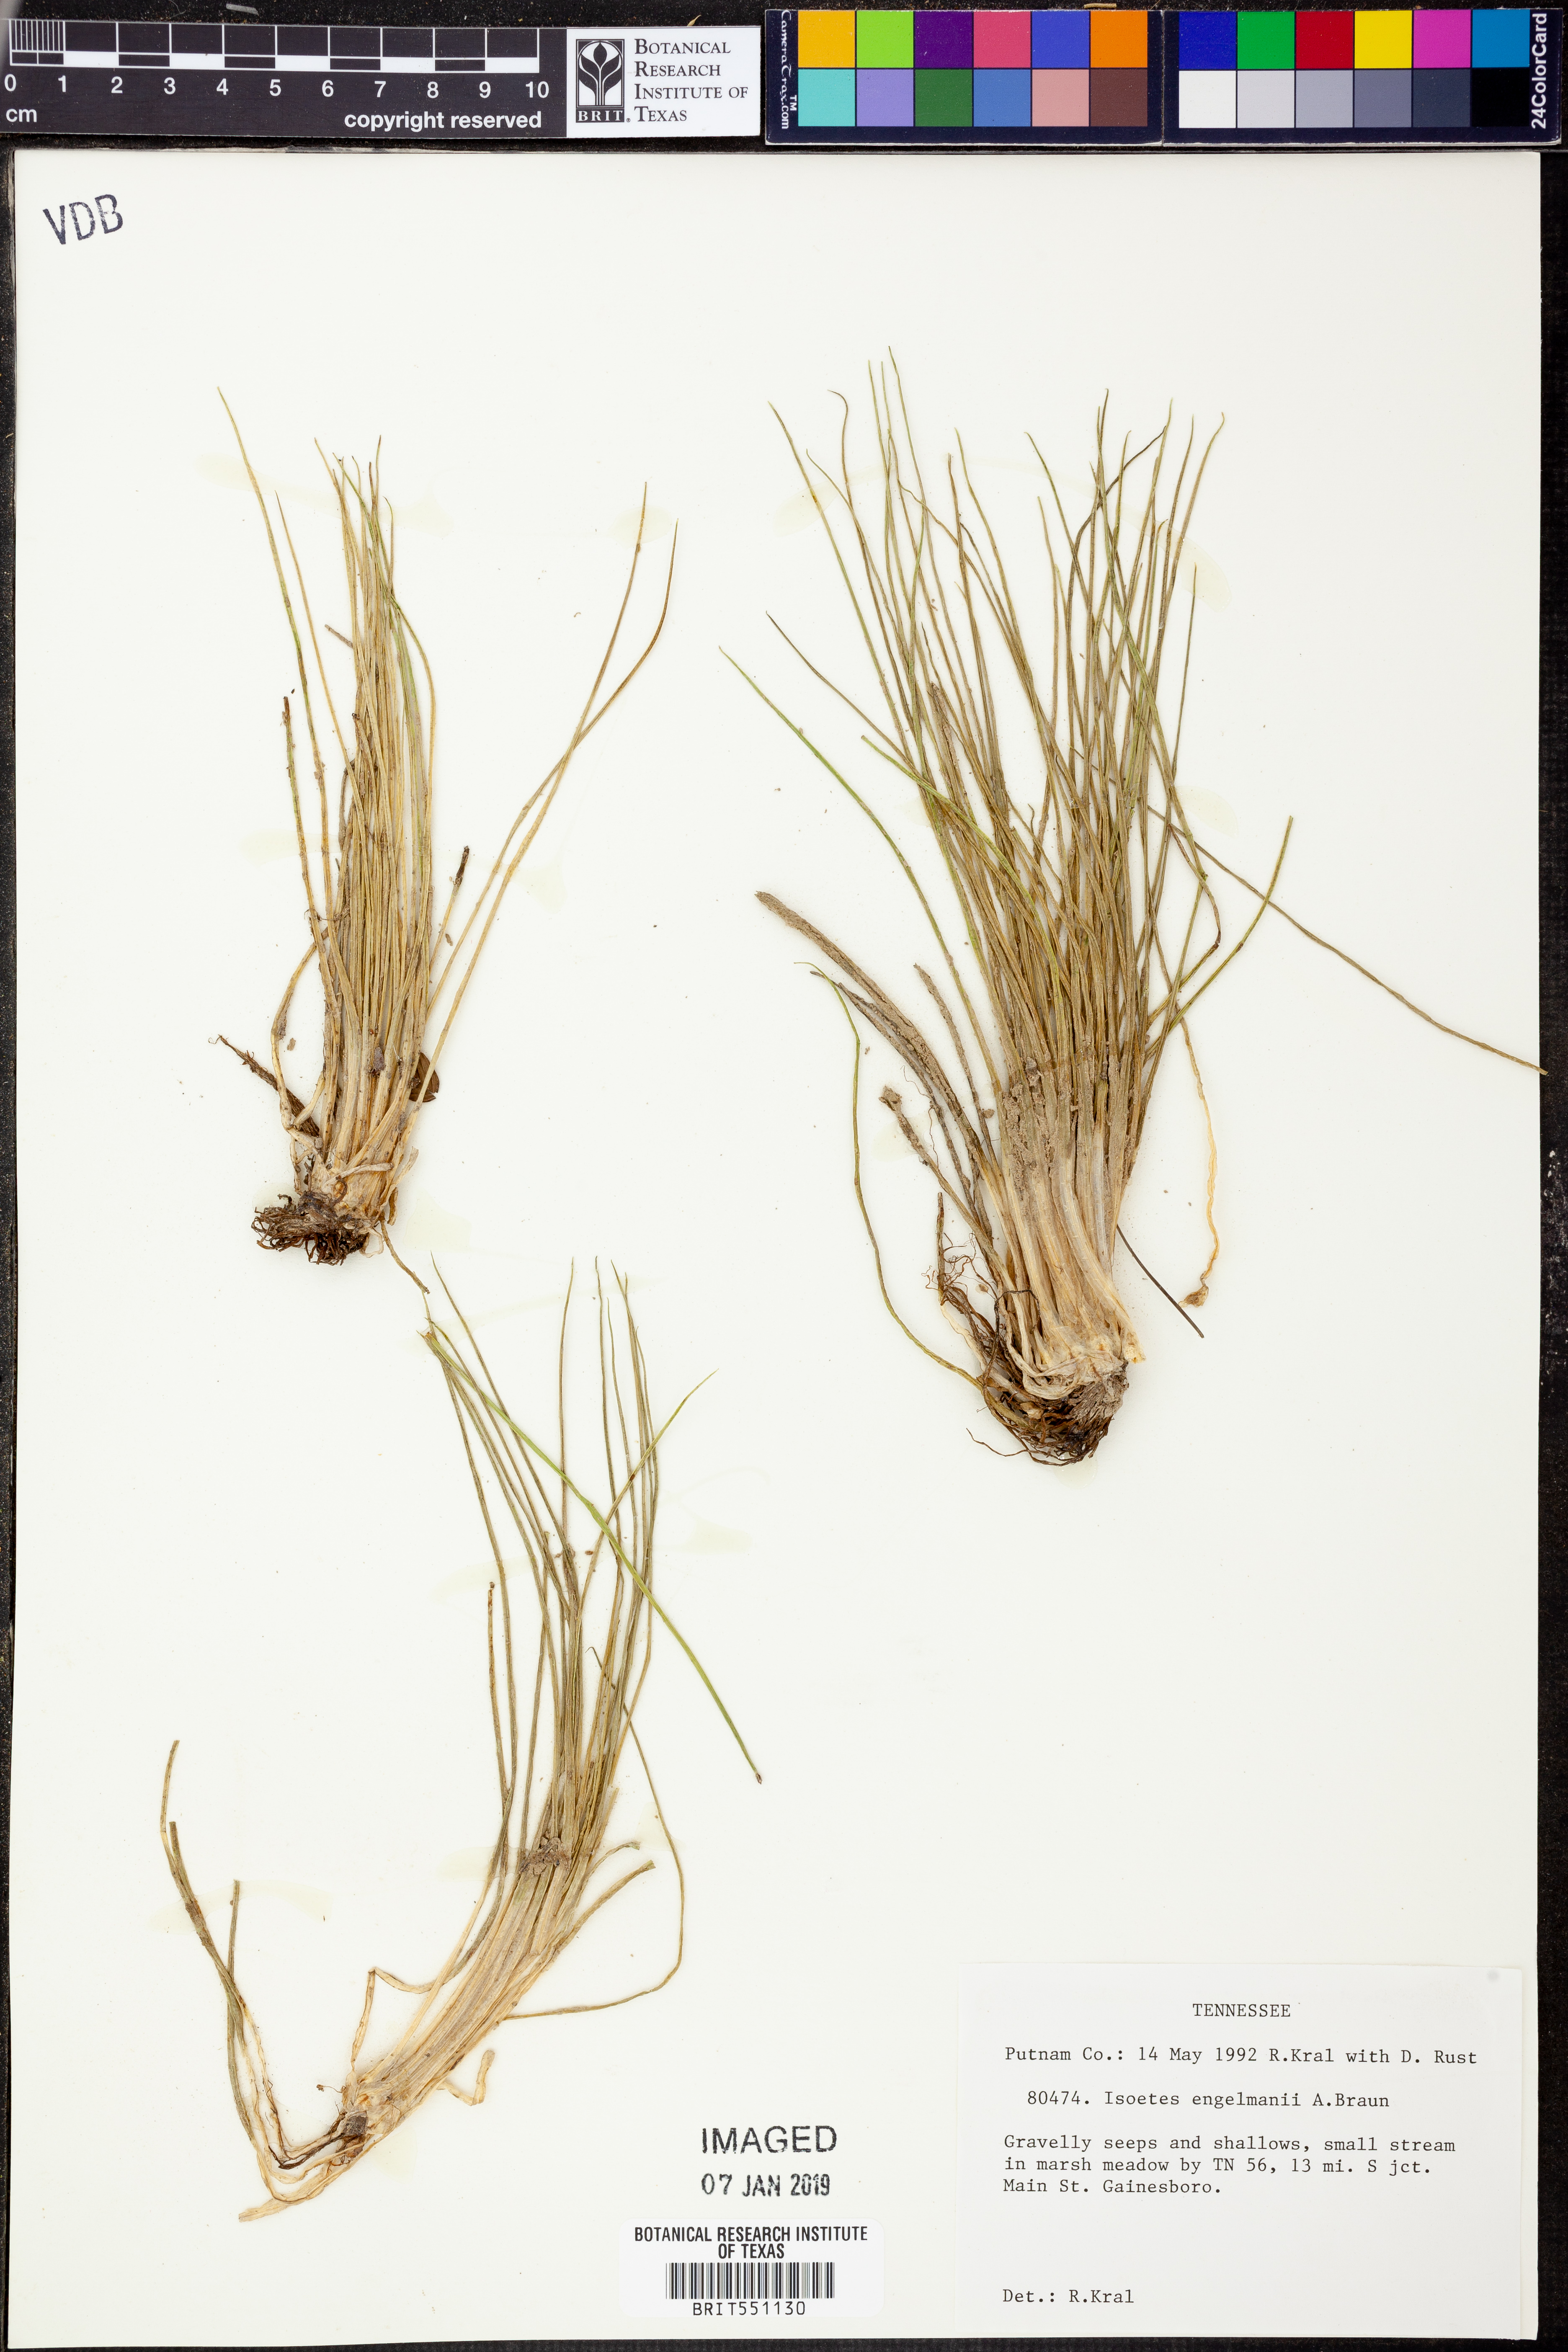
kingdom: Plantae
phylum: Tracheophyta
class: Lycopodiopsida
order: Isoetales
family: Isoetaceae
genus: Isoetes
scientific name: Isoetes engelmannii
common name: Engelmann's quillwort
